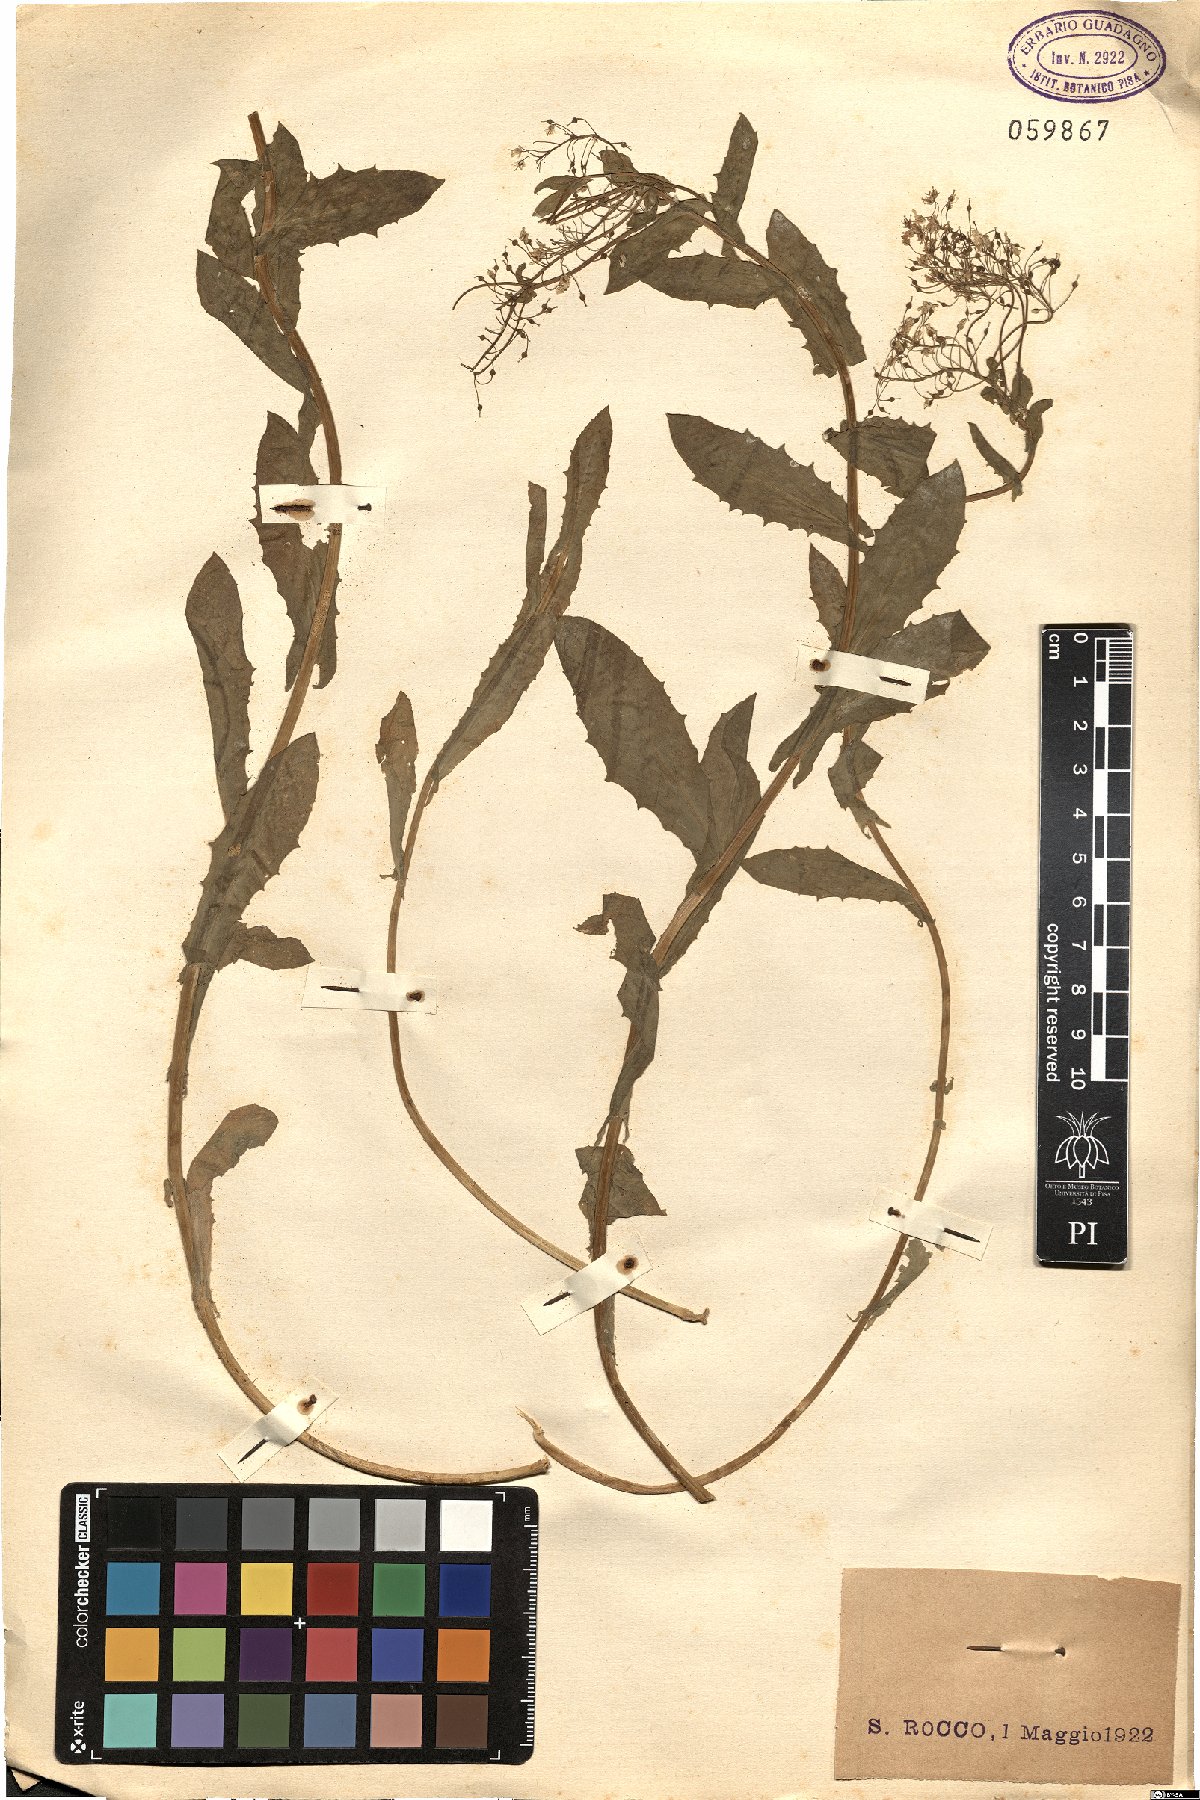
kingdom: Plantae
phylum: Tracheophyta
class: Magnoliopsida
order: Brassicales
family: Brassicaceae
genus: Lepidium
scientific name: Lepidium
